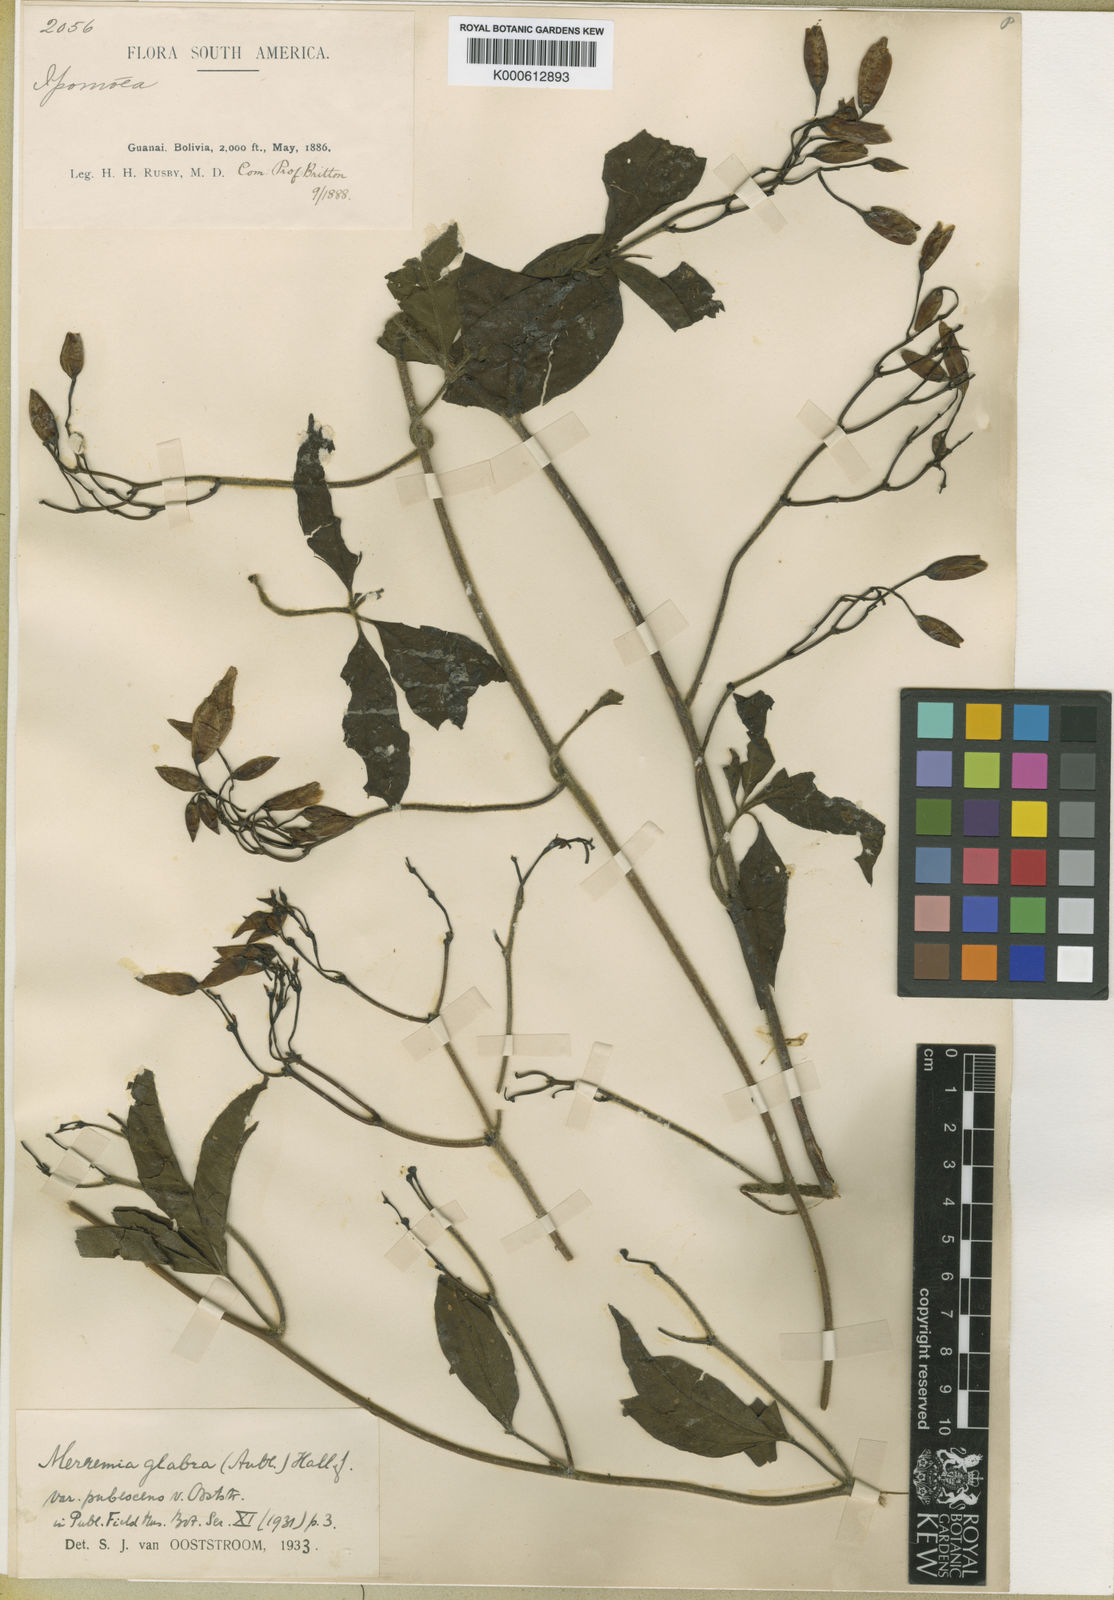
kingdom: Plantae
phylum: Tracheophyta
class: Magnoliopsida
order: Solanales
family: Convolvulaceae
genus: Distimake
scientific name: Distimake macrocalyx
